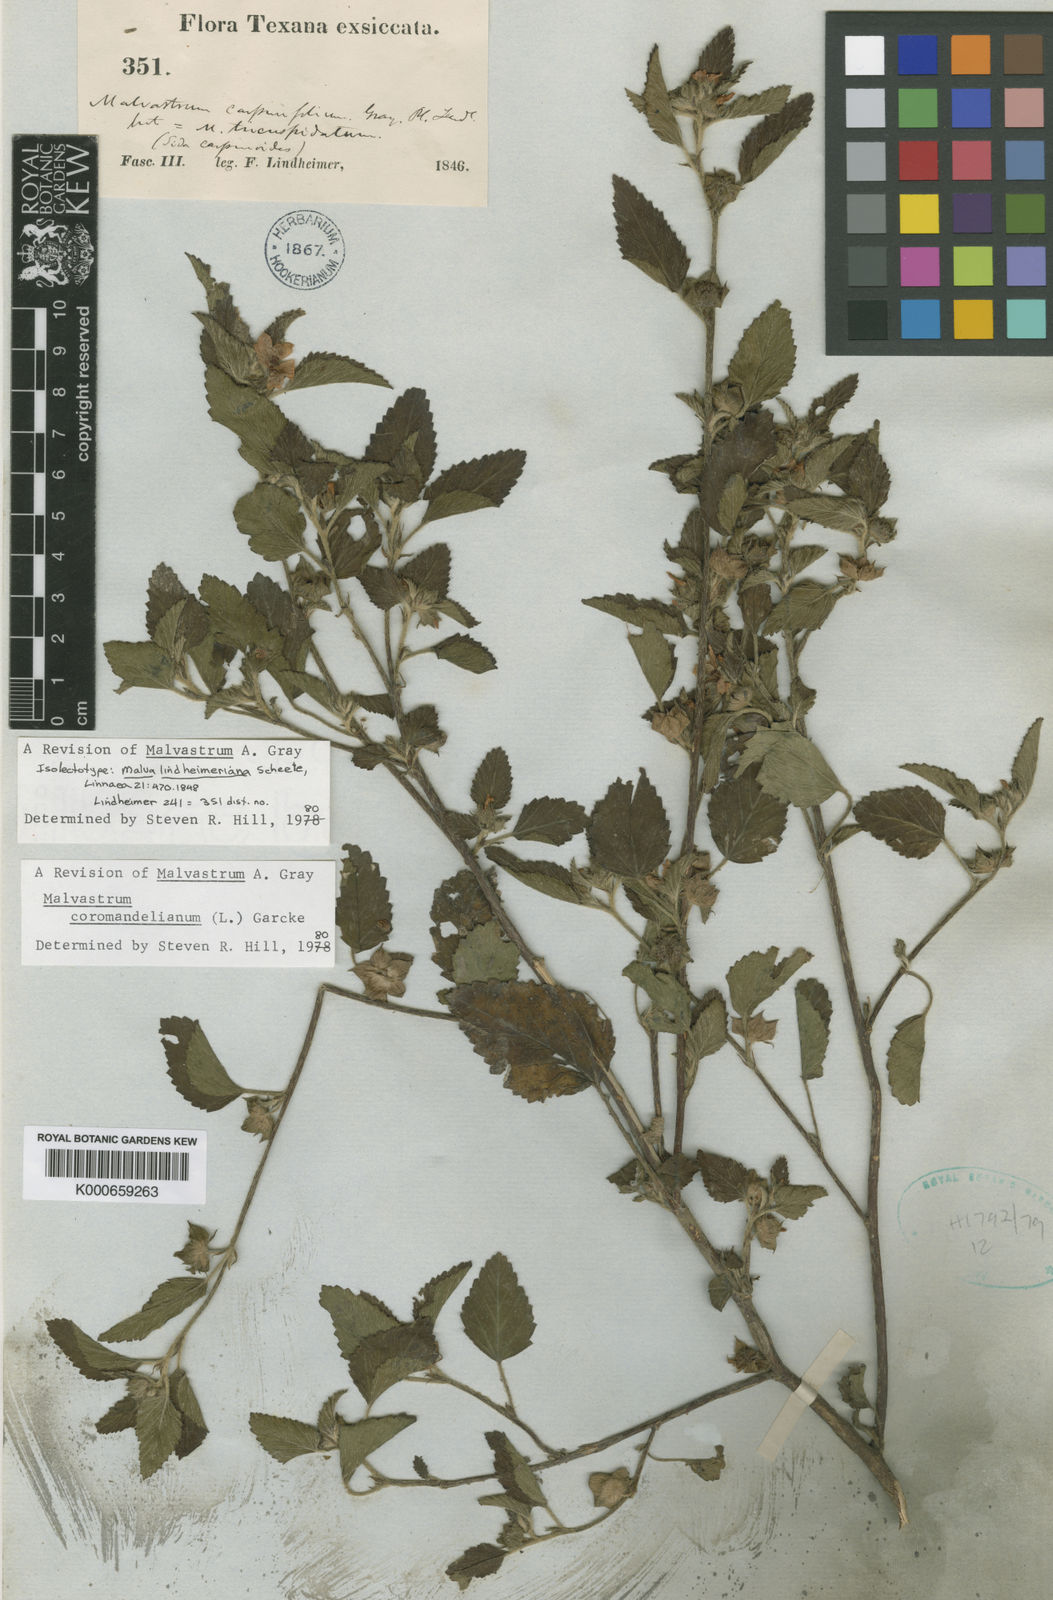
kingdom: Plantae
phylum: Tracheophyta
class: Magnoliopsida
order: Malvales
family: Malvaceae
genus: Malvastrum
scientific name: Malvastrum coromandelianum
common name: Threelobe false mallow
